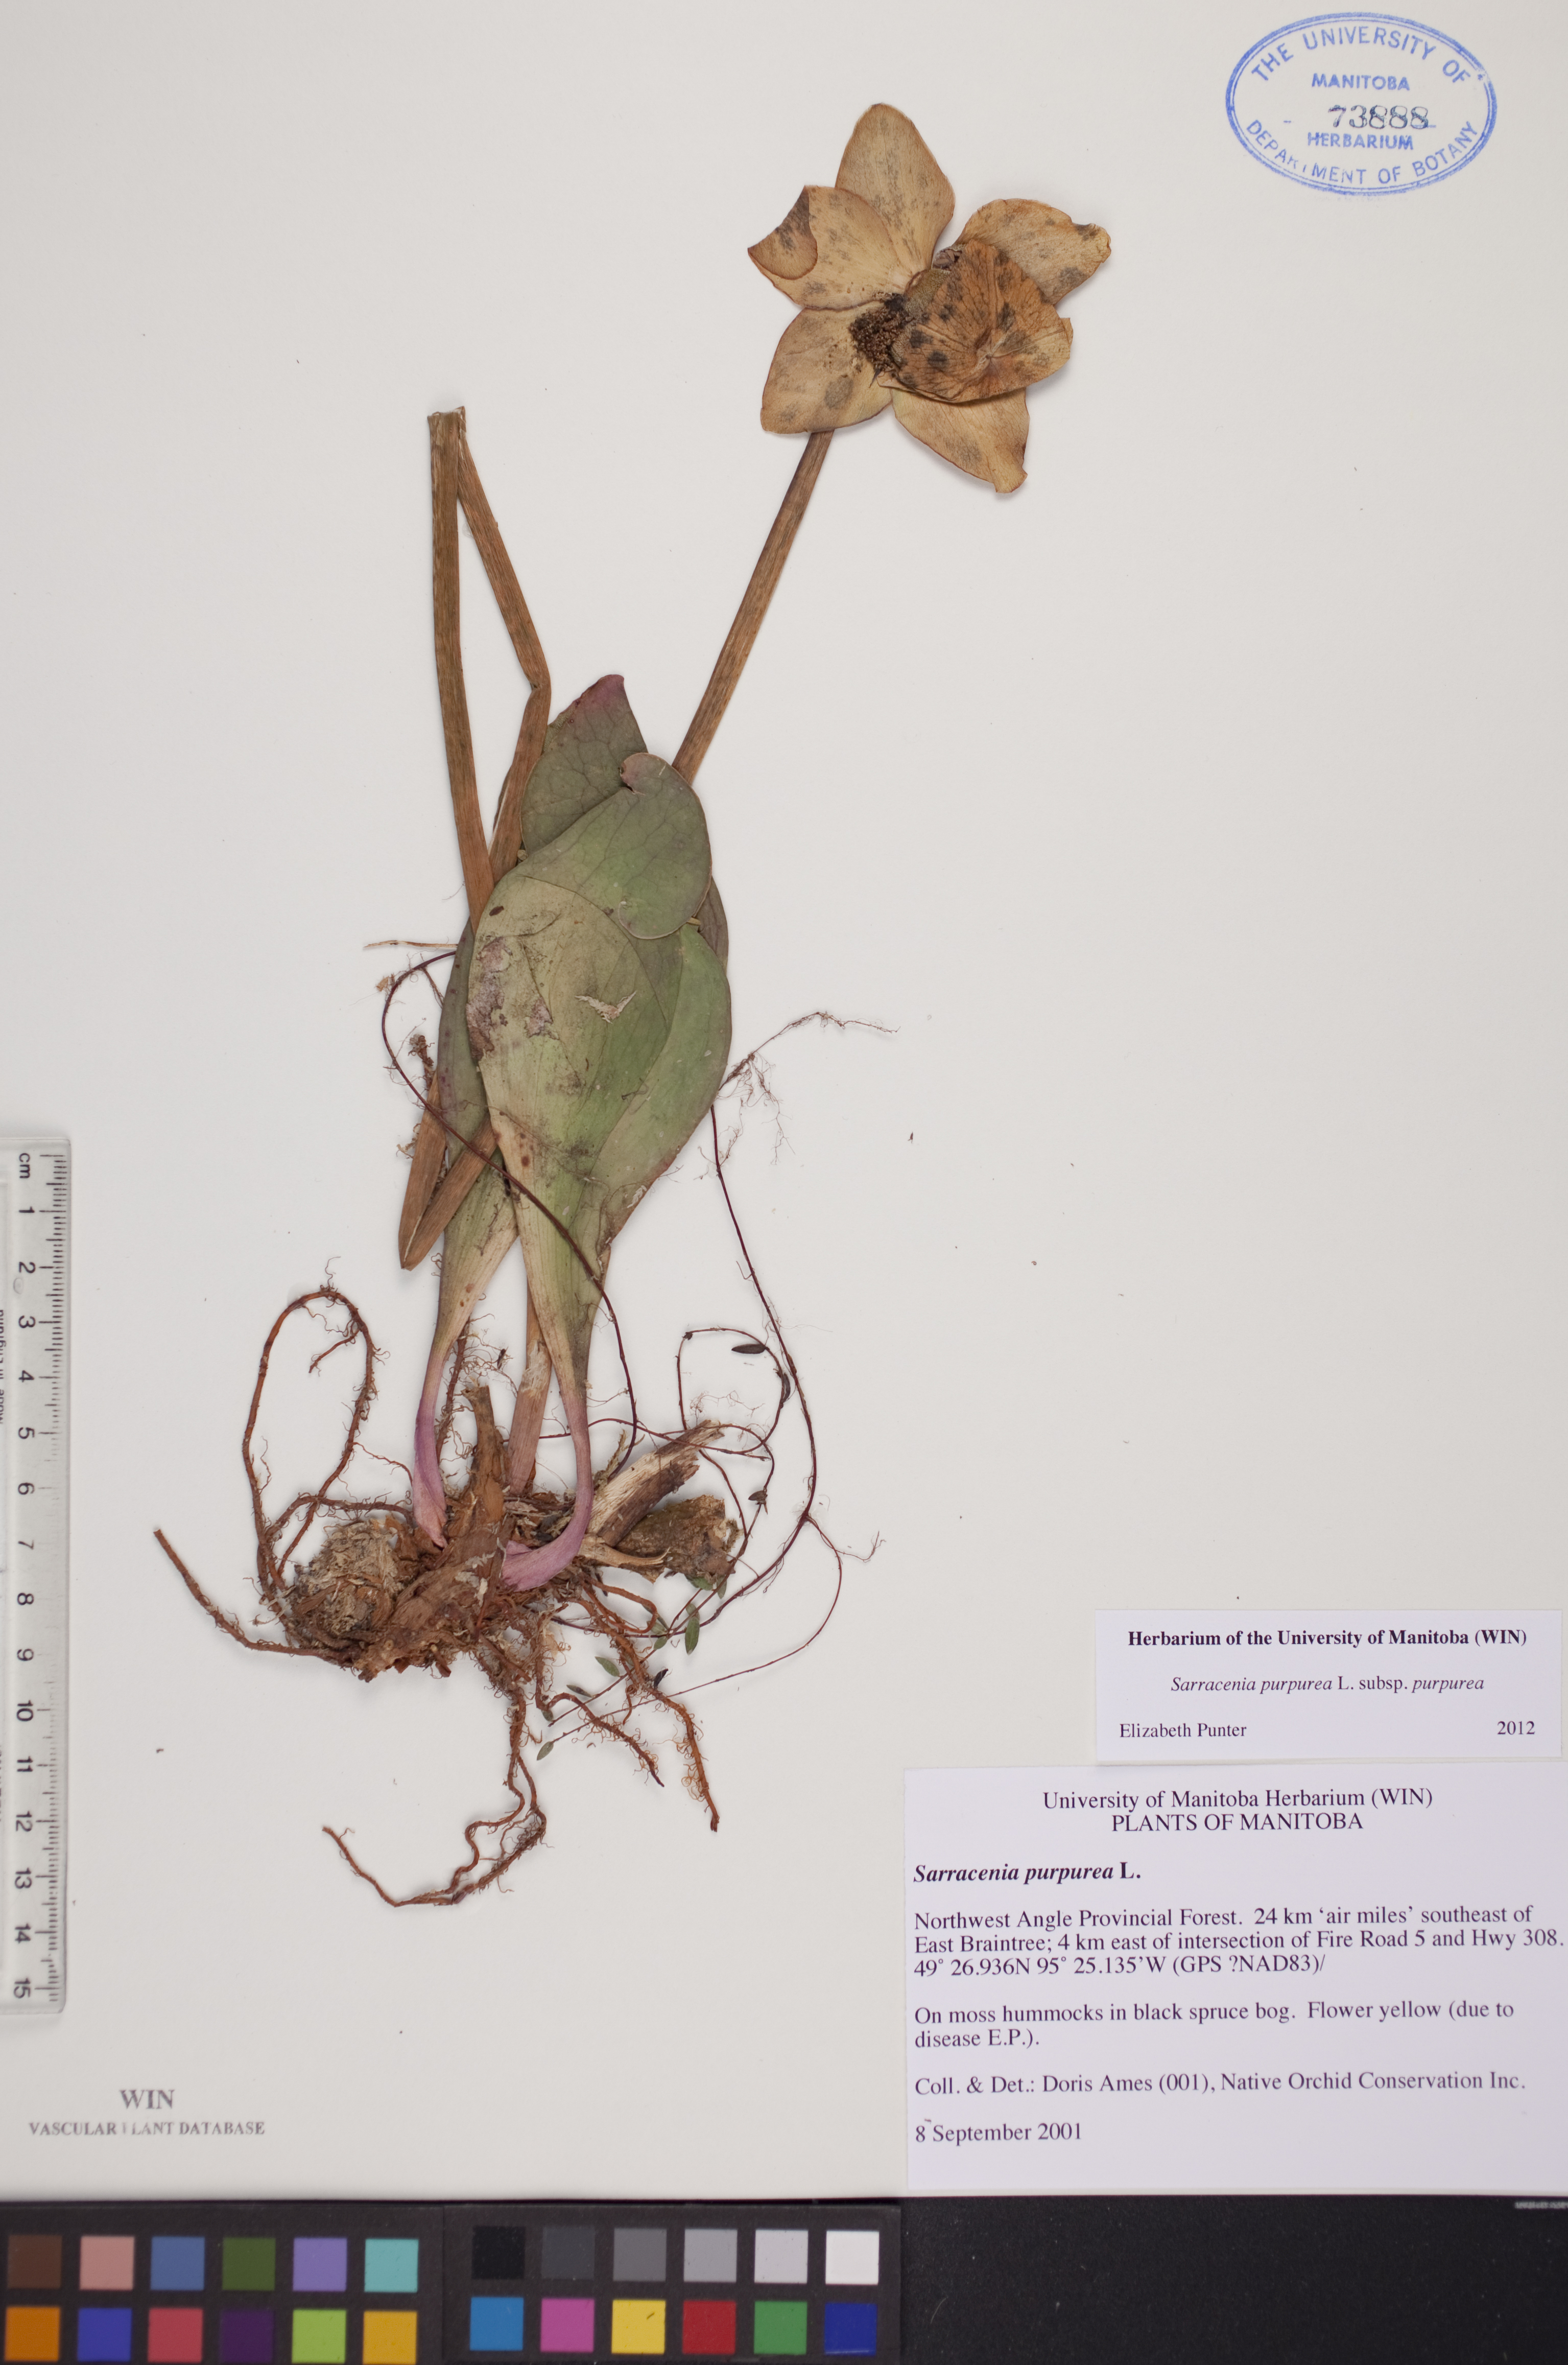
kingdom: Plantae
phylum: Tracheophyta
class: Magnoliopsida
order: Ericales
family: Sarraceniaceae
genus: Sarracenia
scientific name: Sarracenia purpurea
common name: Pitcherplant
